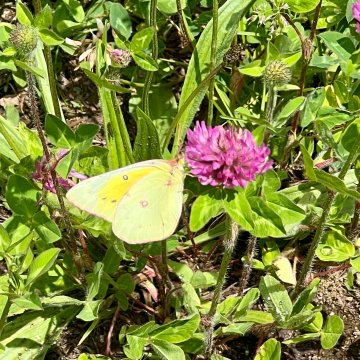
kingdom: Animalia
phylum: Arthropoda
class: Insecta
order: Lepidoptera
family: Pieridae
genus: Colias
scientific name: Colias eurytheme
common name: Orange Sulphur
